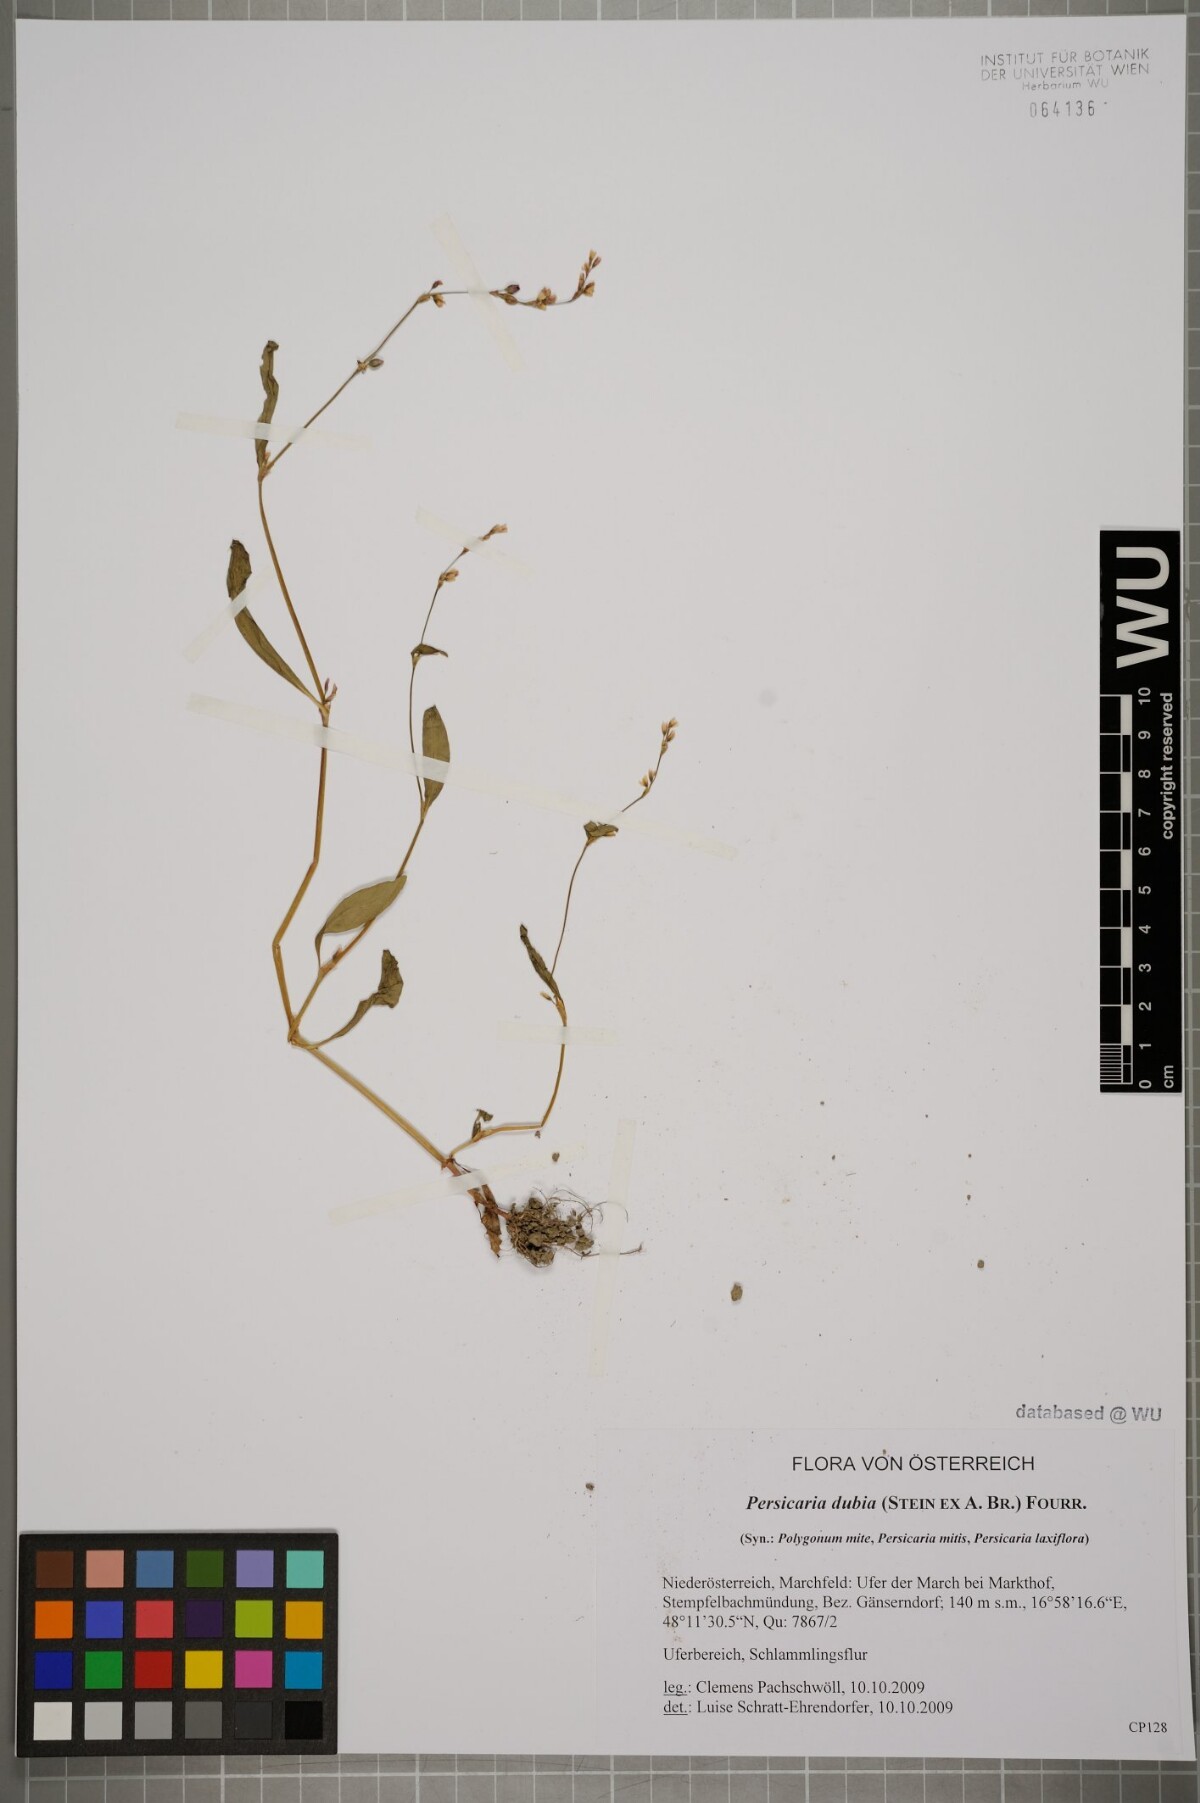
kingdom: Plantae
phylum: Tracheophyta
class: Magnoliopsida
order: Caryophyllales
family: Polygonaceae
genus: Persicaria
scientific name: Persicaria mitis
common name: Tasteless water-pepper
